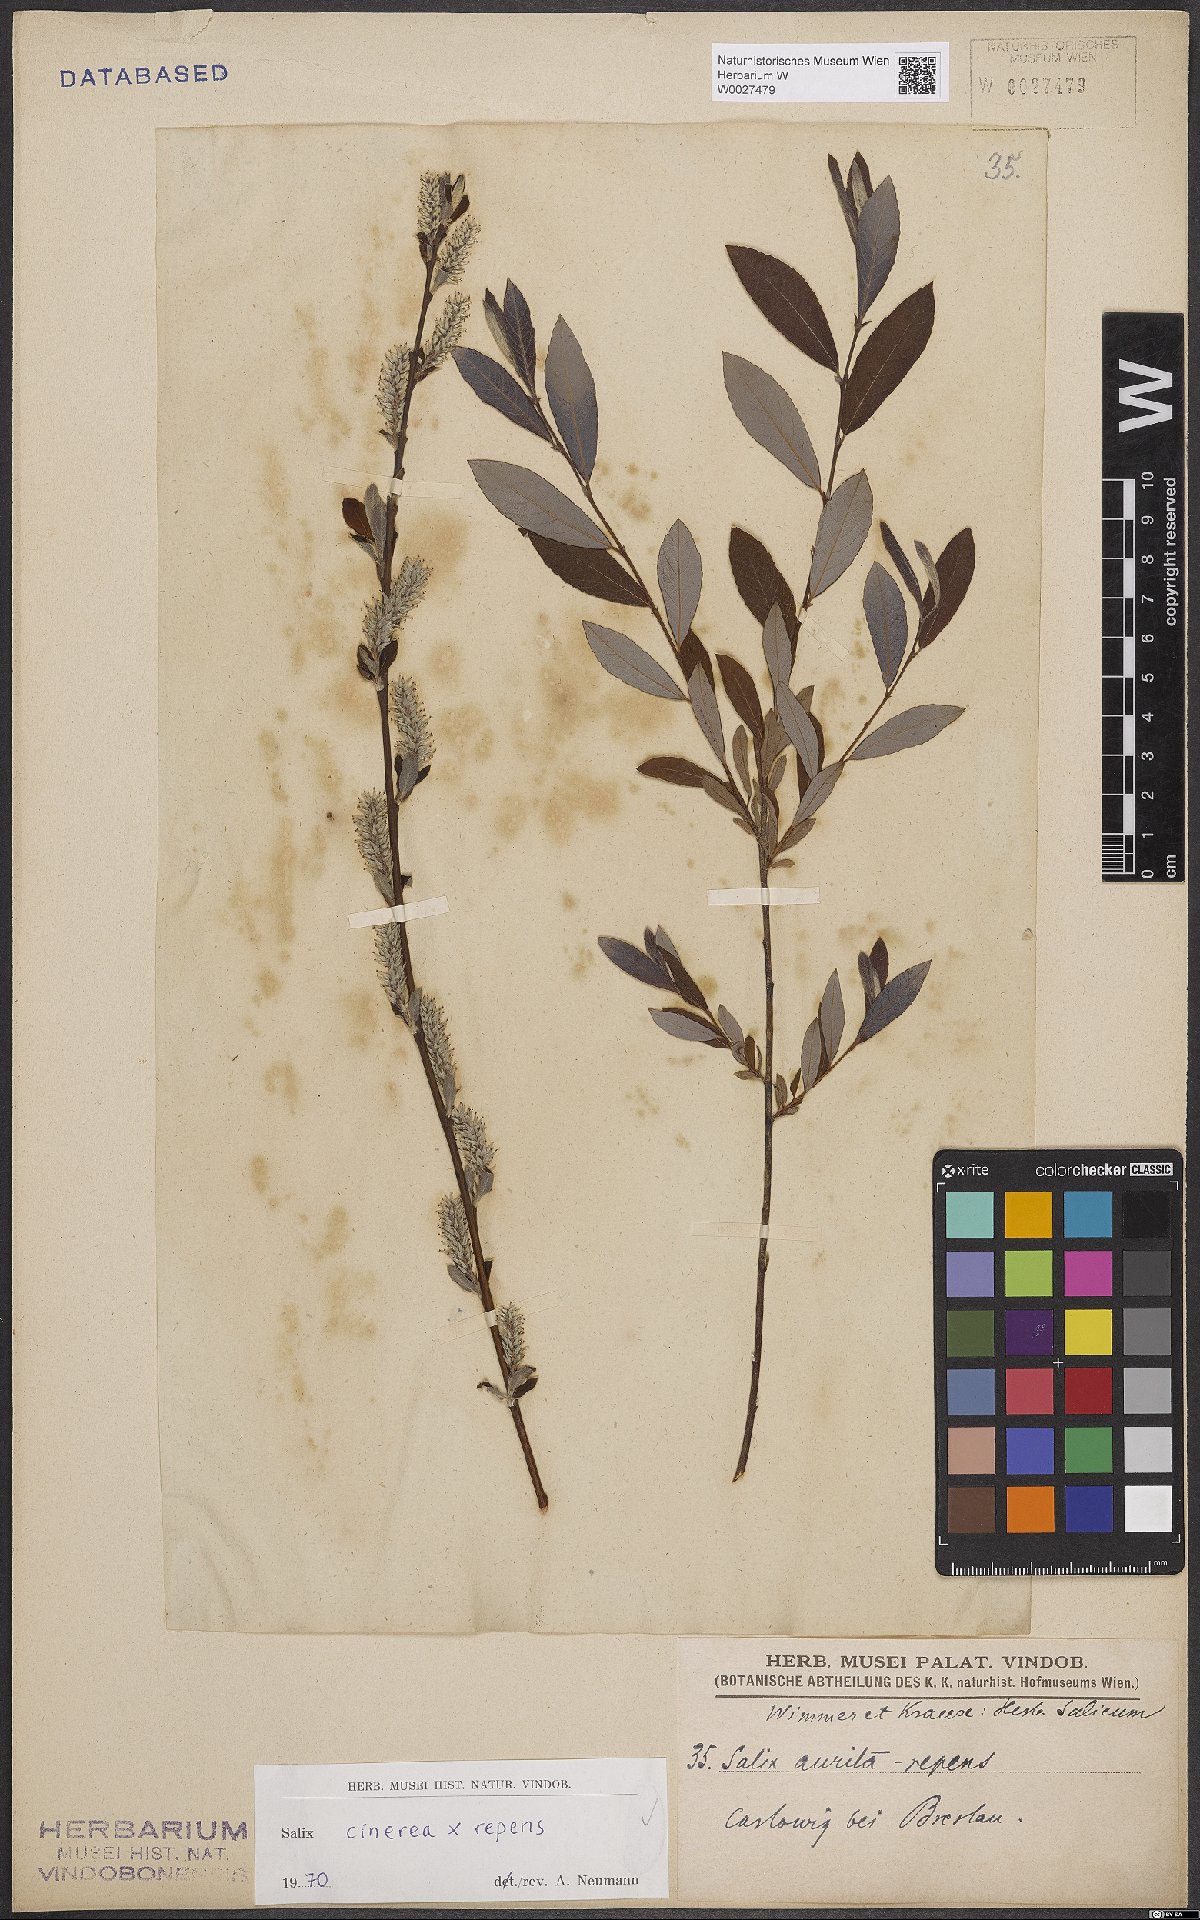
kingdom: Plantae
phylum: Tracheophyta
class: Magnoliopsida
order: Malpighiales
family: Salicaceae
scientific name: Salicaceae
